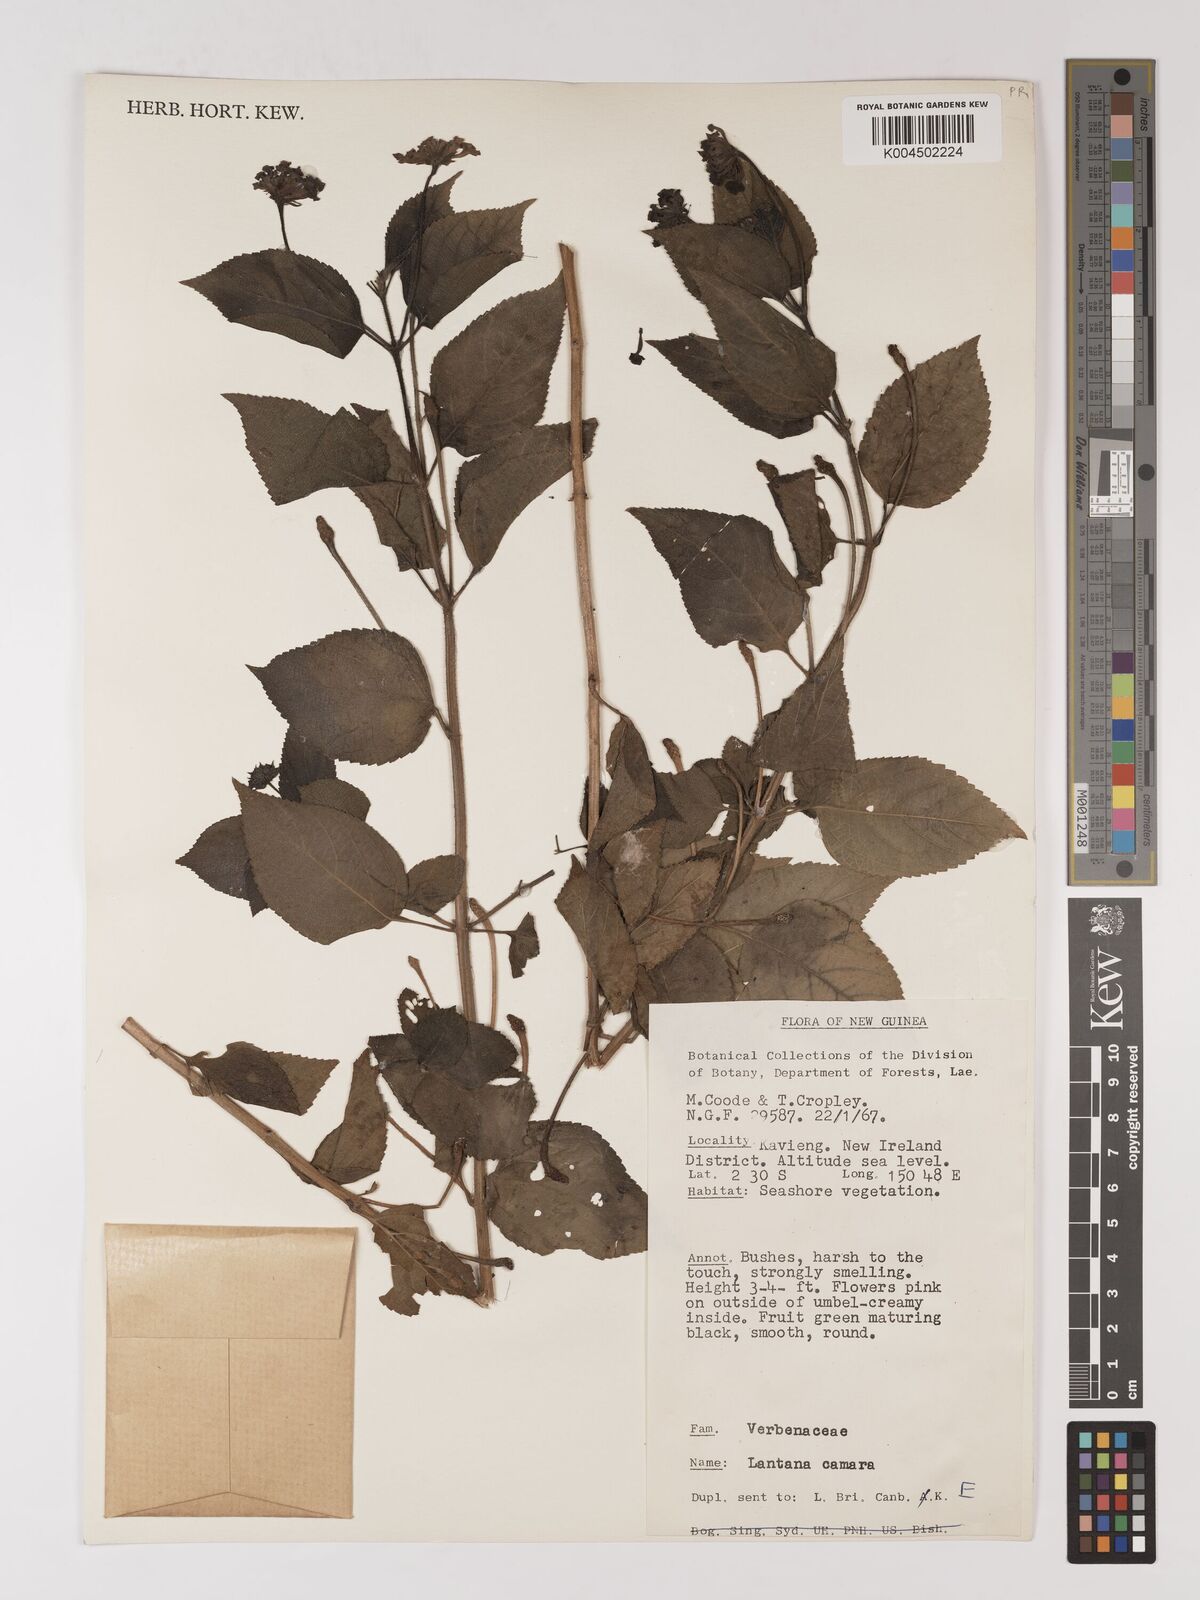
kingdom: Plantae
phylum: Tracheophyta
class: Magnoliopsida
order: Lamiales
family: Verbenaceae
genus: Lantana
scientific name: Lantana camara
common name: Lantana
